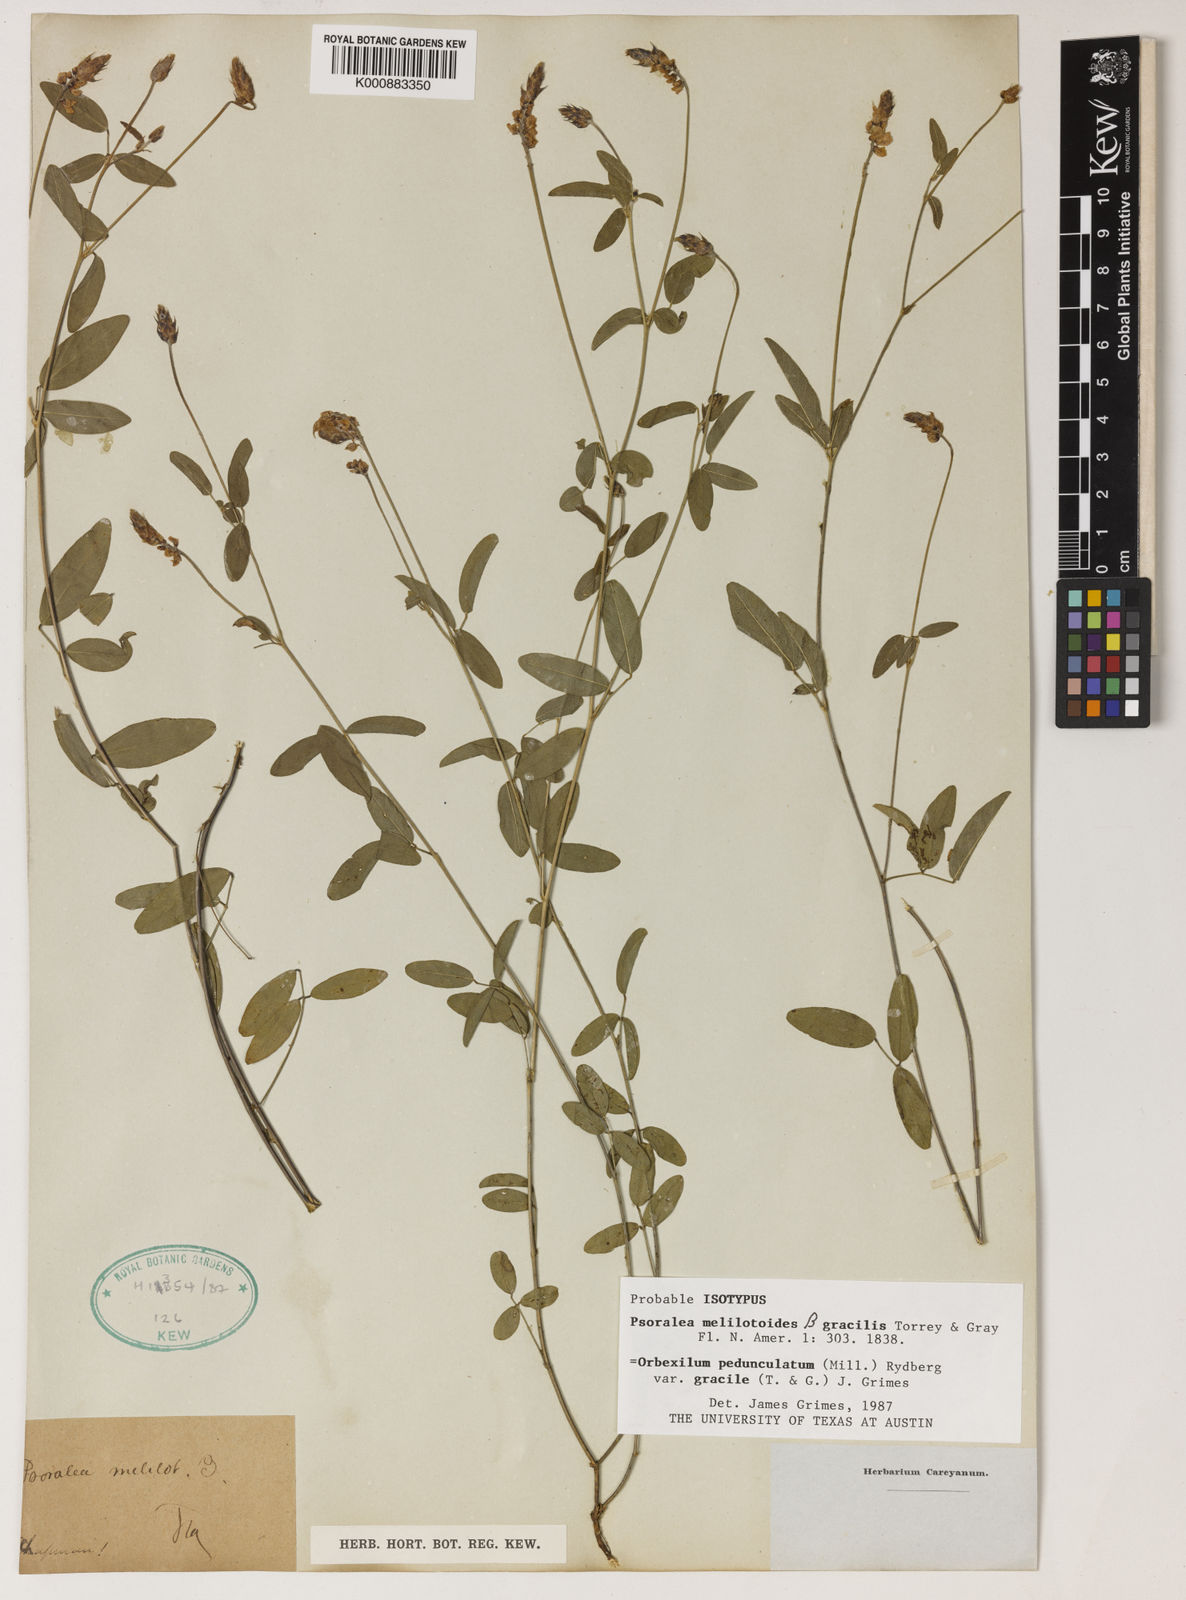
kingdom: Plantae
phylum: Tracheophyta
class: Magnoliopsida
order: Fabales
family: Fabaceae
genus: Orbexilum
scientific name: Orbexilum psoralioides
